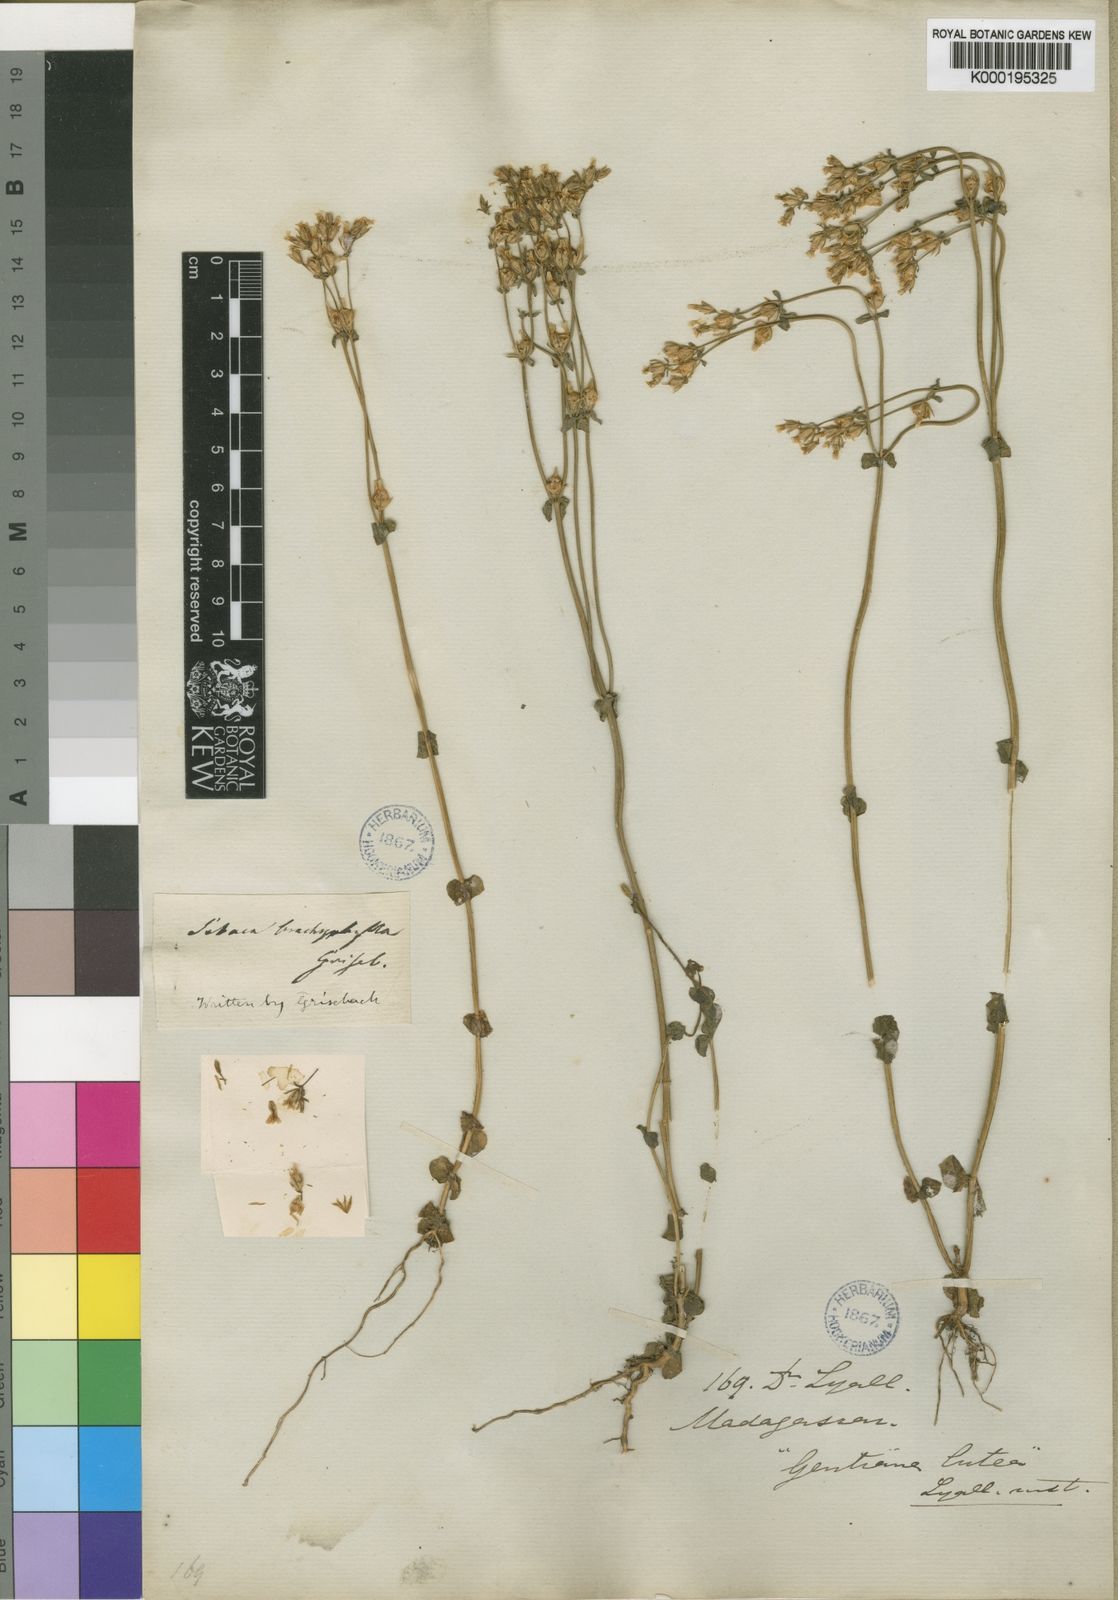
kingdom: Plantae
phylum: Tracheophyta
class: Magnoliopsida
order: Gentianales
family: Gentianaceae
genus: Sebaea
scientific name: Sebaea brachyphylla
